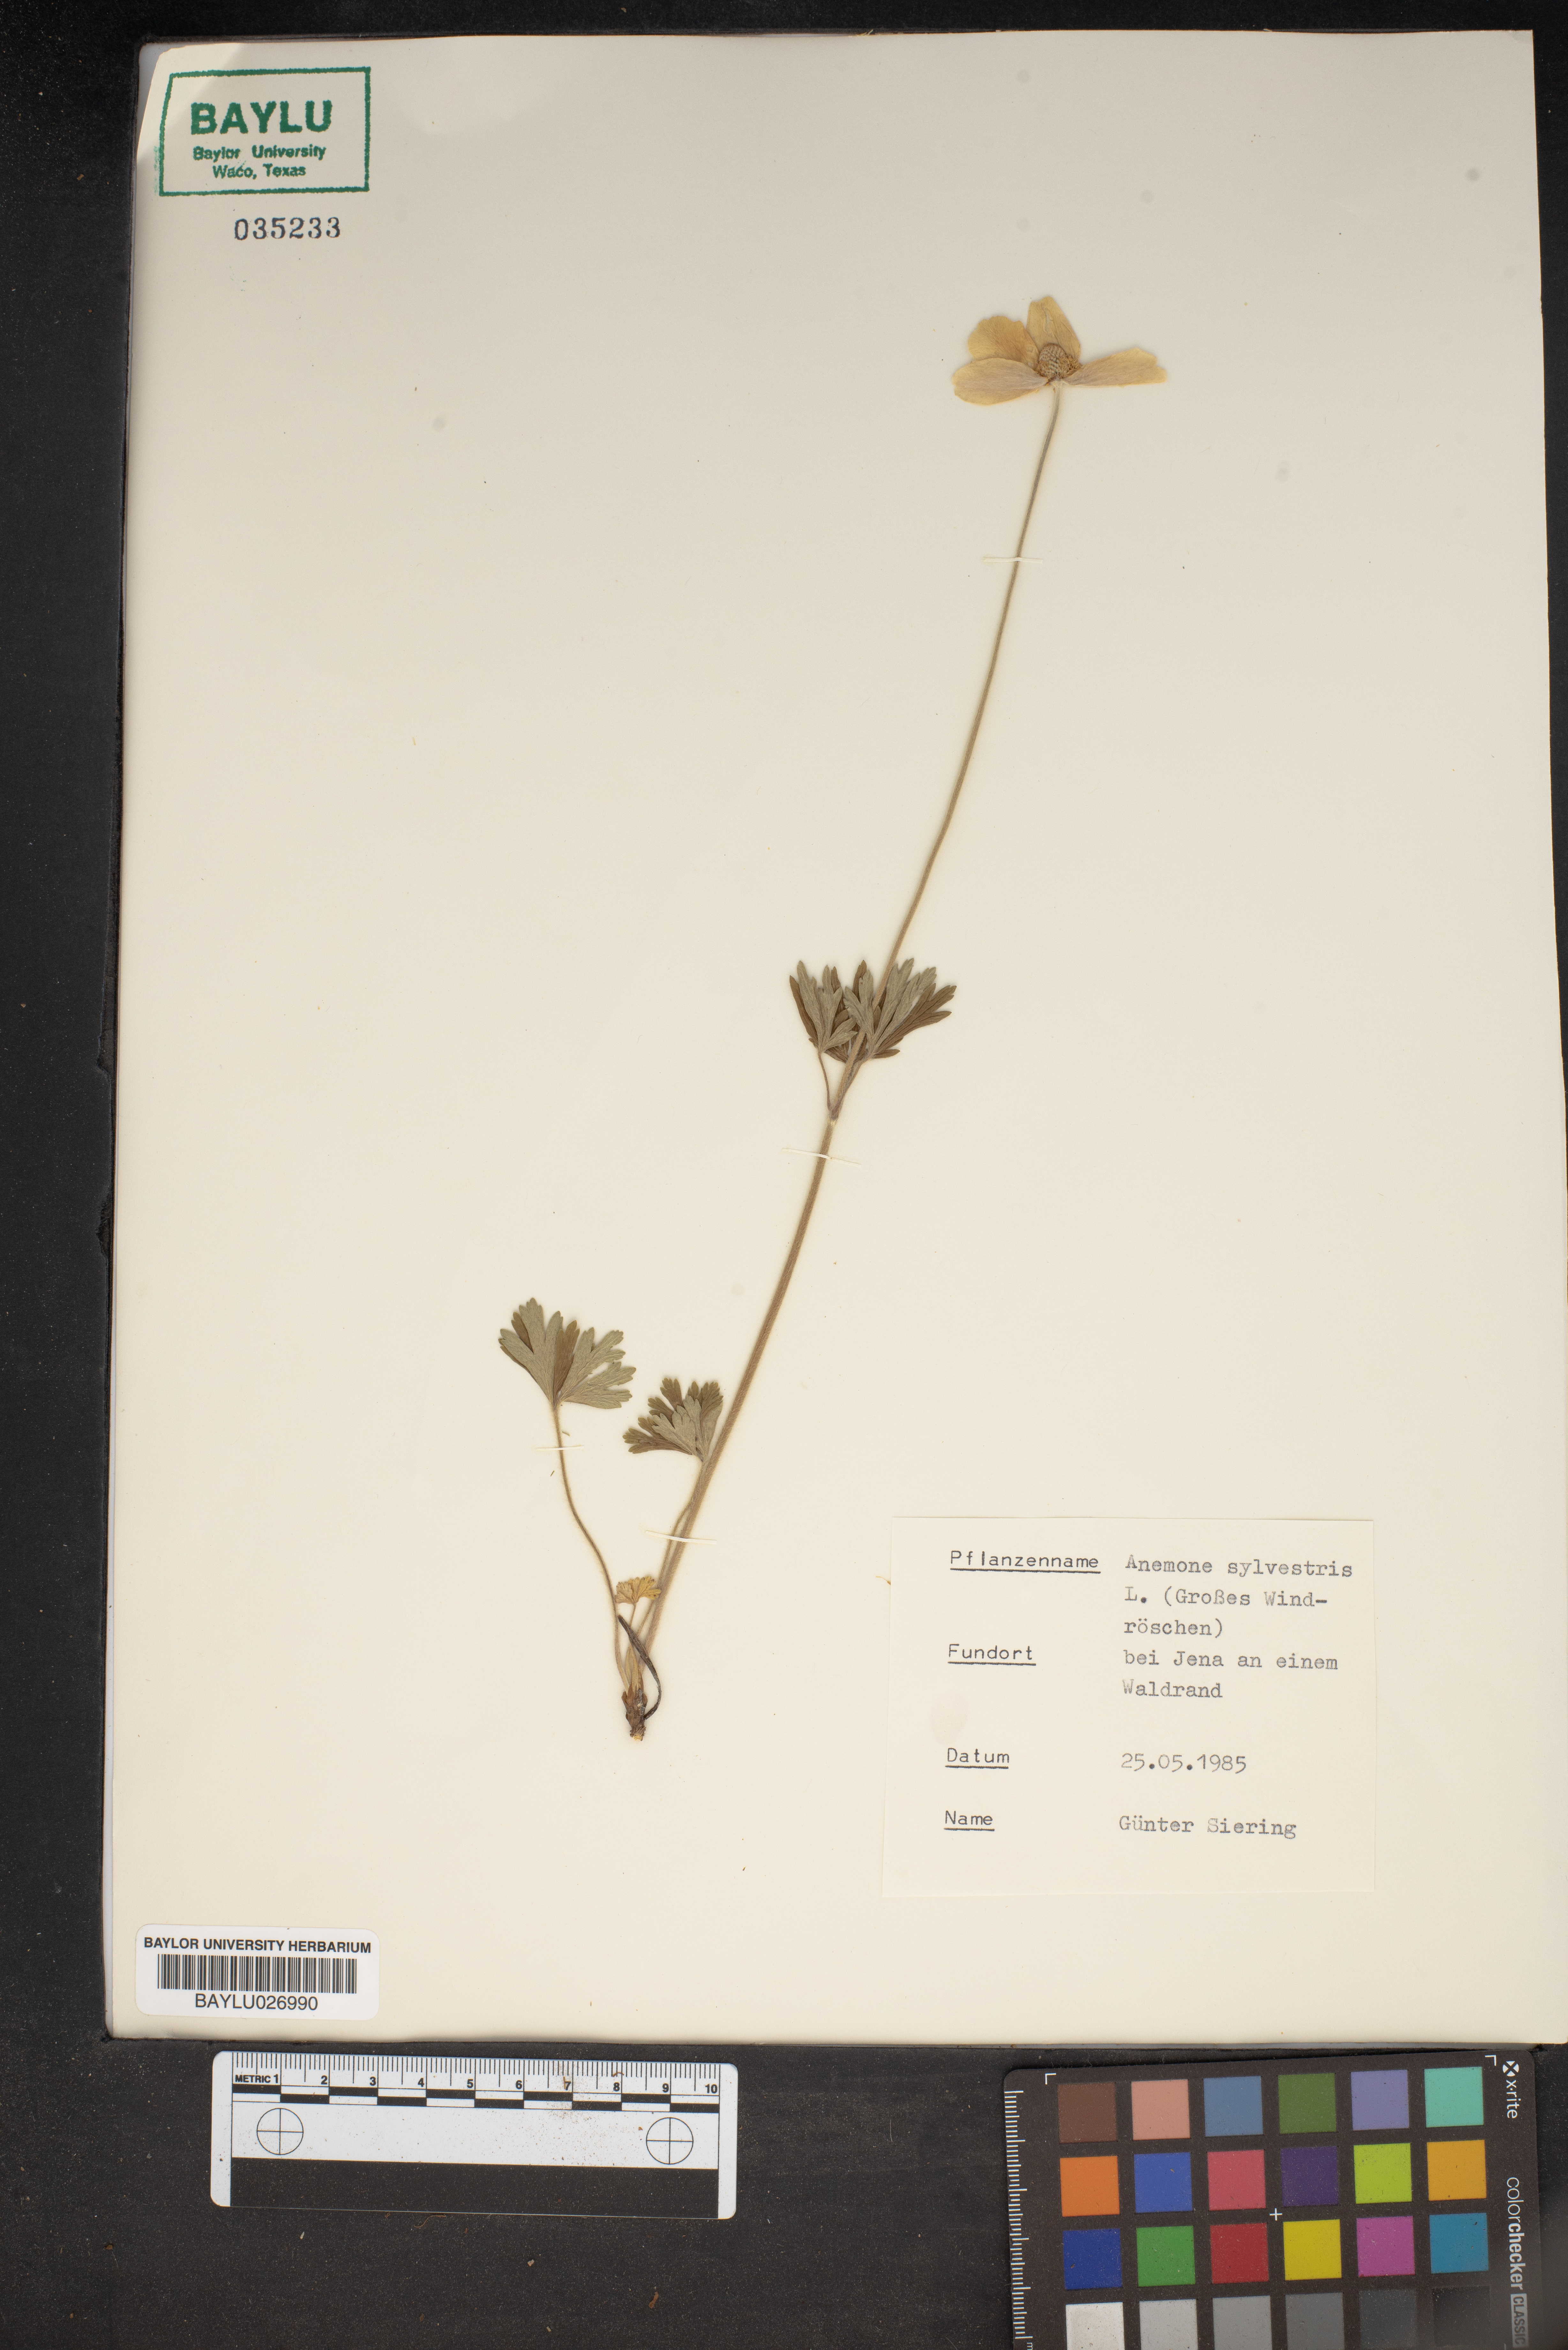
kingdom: Plantae
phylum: Tracheophyta
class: Magnoliopsida
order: Ranunculales
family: Ranunculaceae
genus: Anemone
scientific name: Anemone sylvestris
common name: Snowdrop anemone
